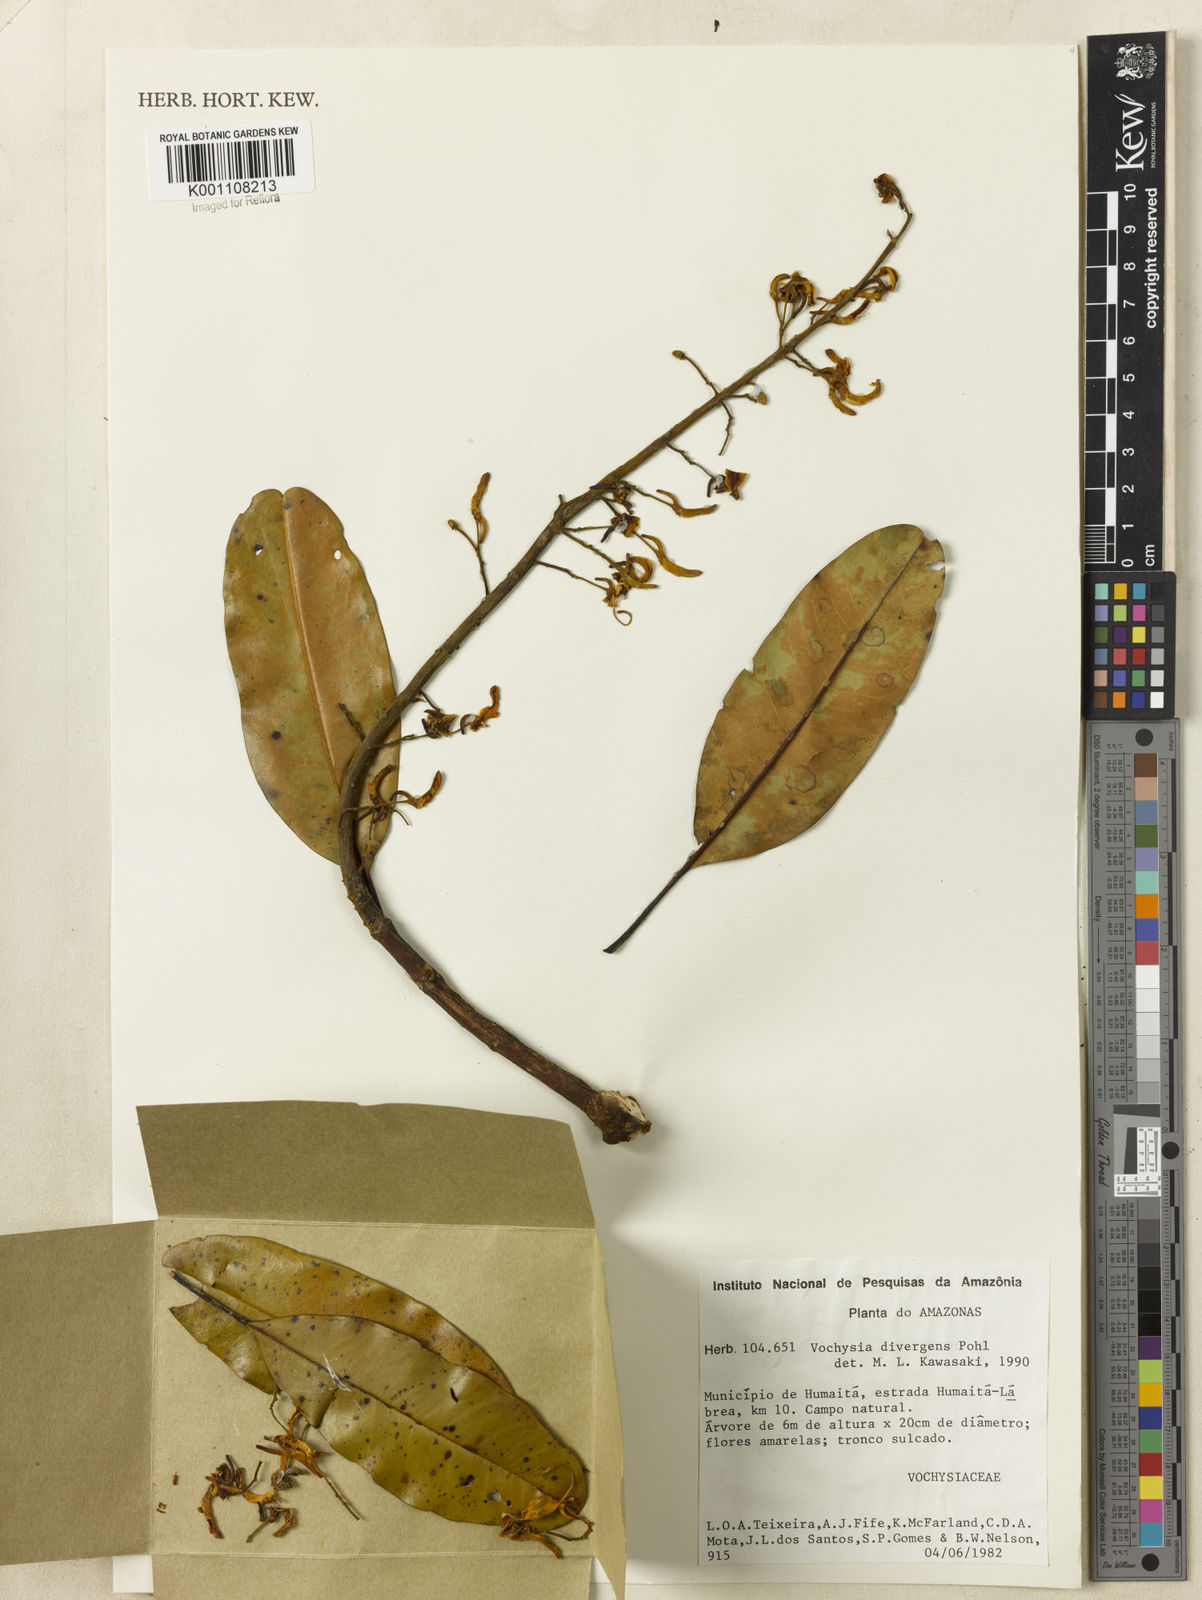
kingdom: Plantae
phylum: Tracheophyta
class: Magnoliopsida
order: Myrtales
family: Vochysiaceae
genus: Vochysia
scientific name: Vochysia divergens
